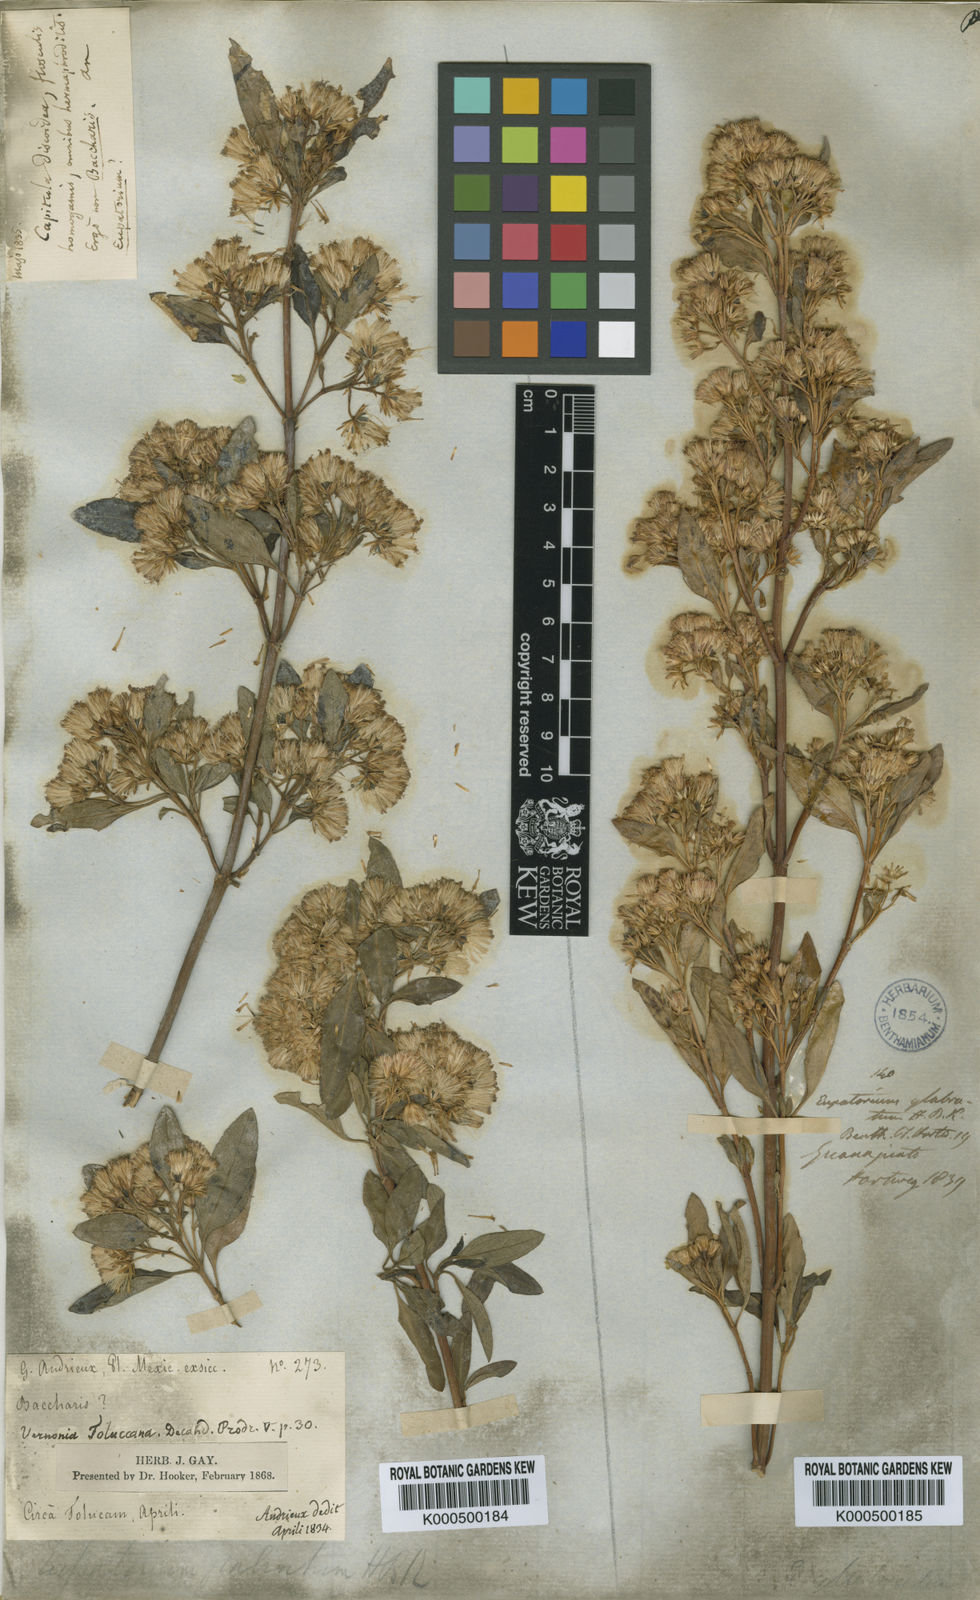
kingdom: Plantae
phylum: Tracheophyta
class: Magnoliopsida
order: Asterales
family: Asteraceae
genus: Ageratina
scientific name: Ageratina glabrata
